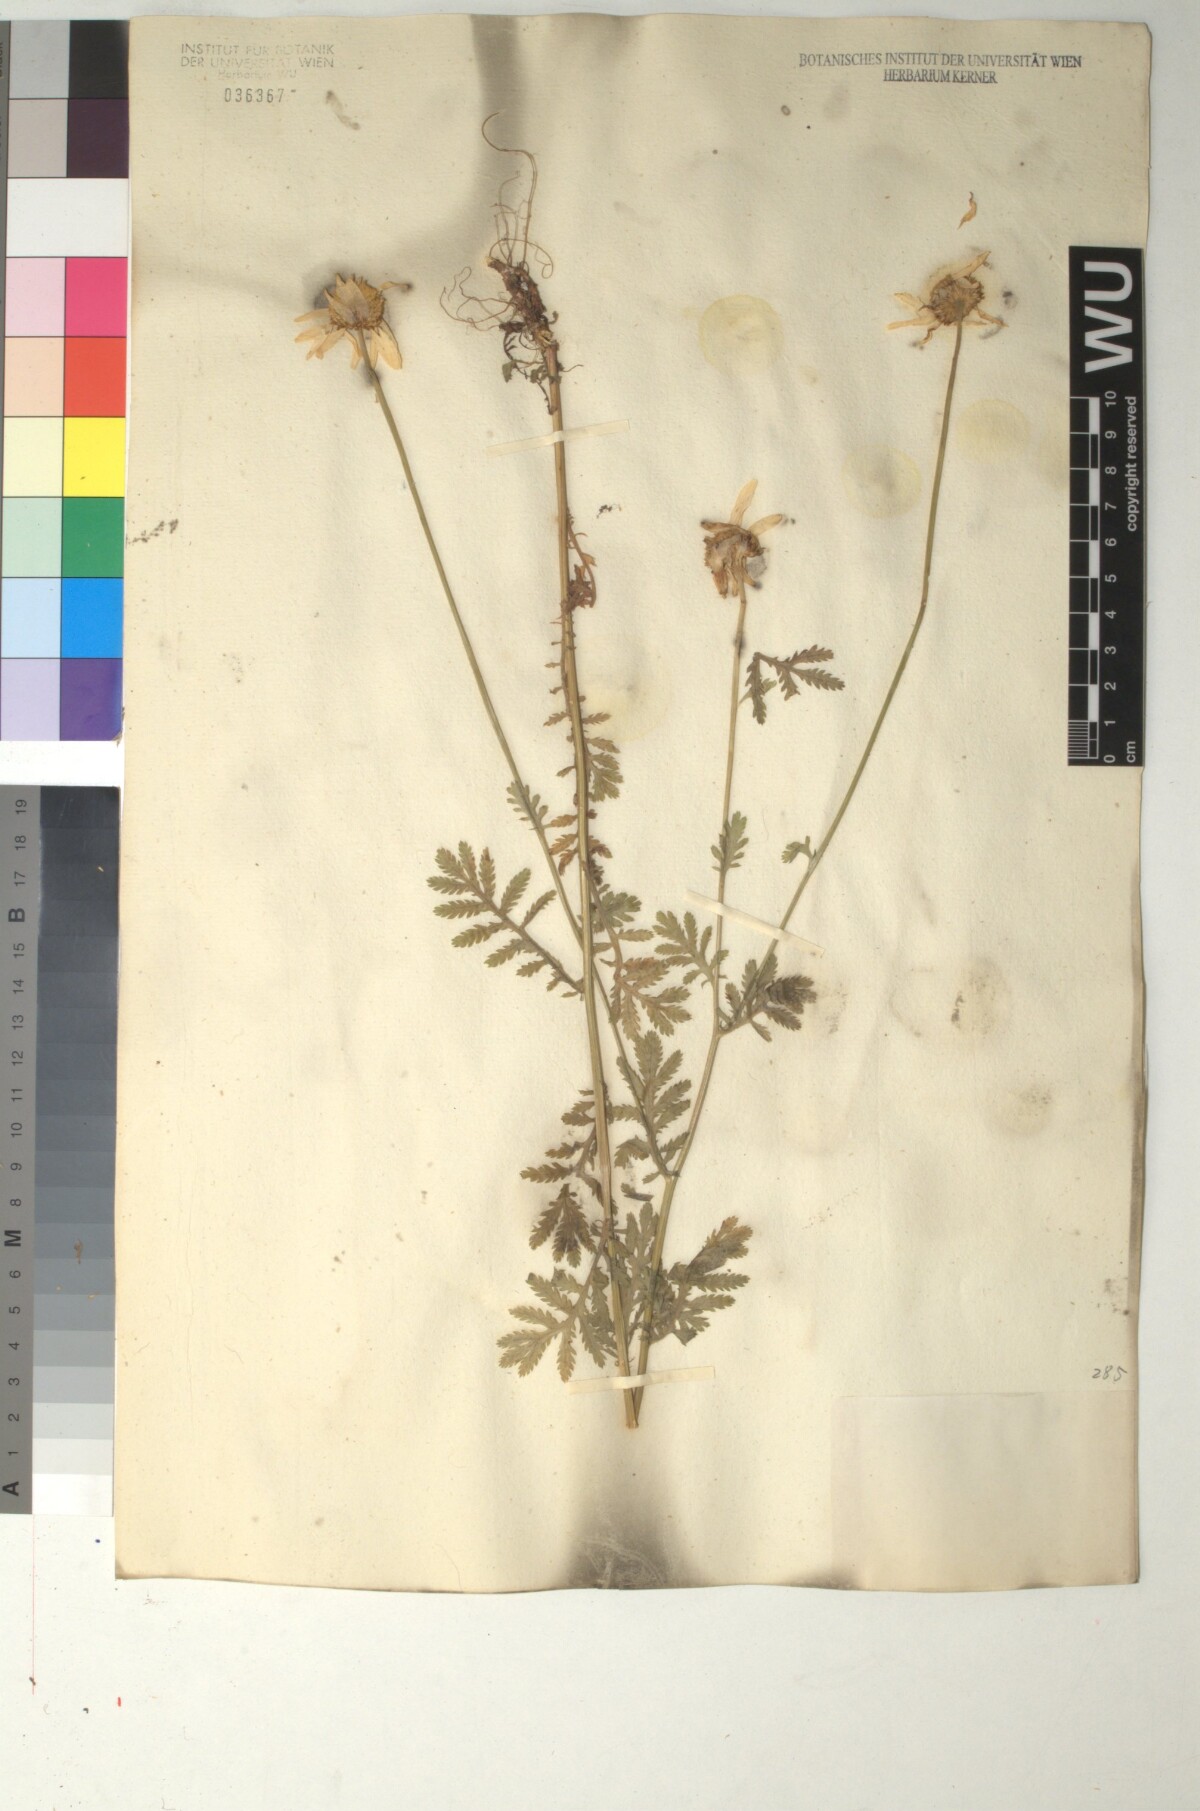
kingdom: Plantae
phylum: Tracheophyta
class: Magnoliopsida
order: Asterales
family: Asteraceae
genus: Cota
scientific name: Cota macrantha
